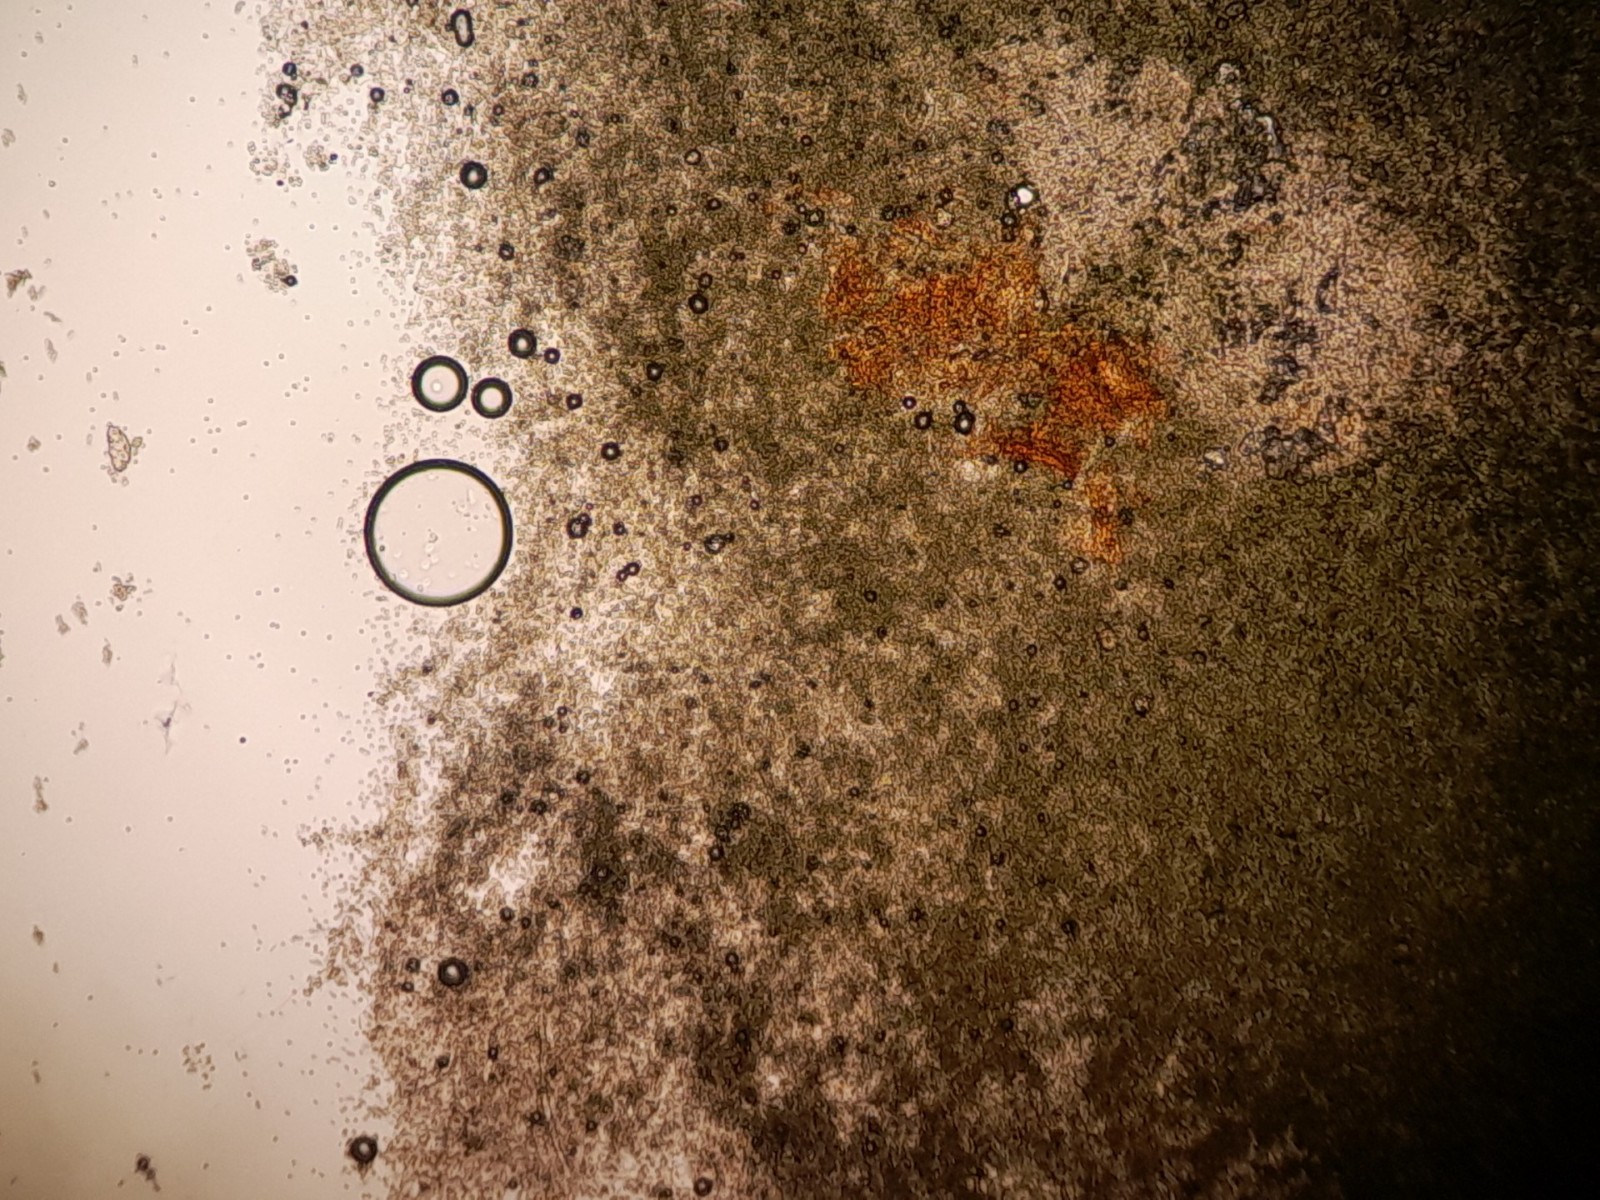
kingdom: Fungi
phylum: Ascomycota
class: Sordariomycetes
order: Hypocreales
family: Hypocreaceae
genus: Trichoderma
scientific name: Trichoderma
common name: kødkerne
